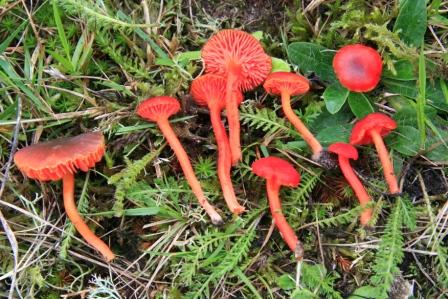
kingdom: Fungi
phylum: Basidiomycota
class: Agaricomycetes
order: Agaricales
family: Hygrophoraceae
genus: Hygrocybe
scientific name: Hygrocybe phaeococcinea
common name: sortdugget vokshat
